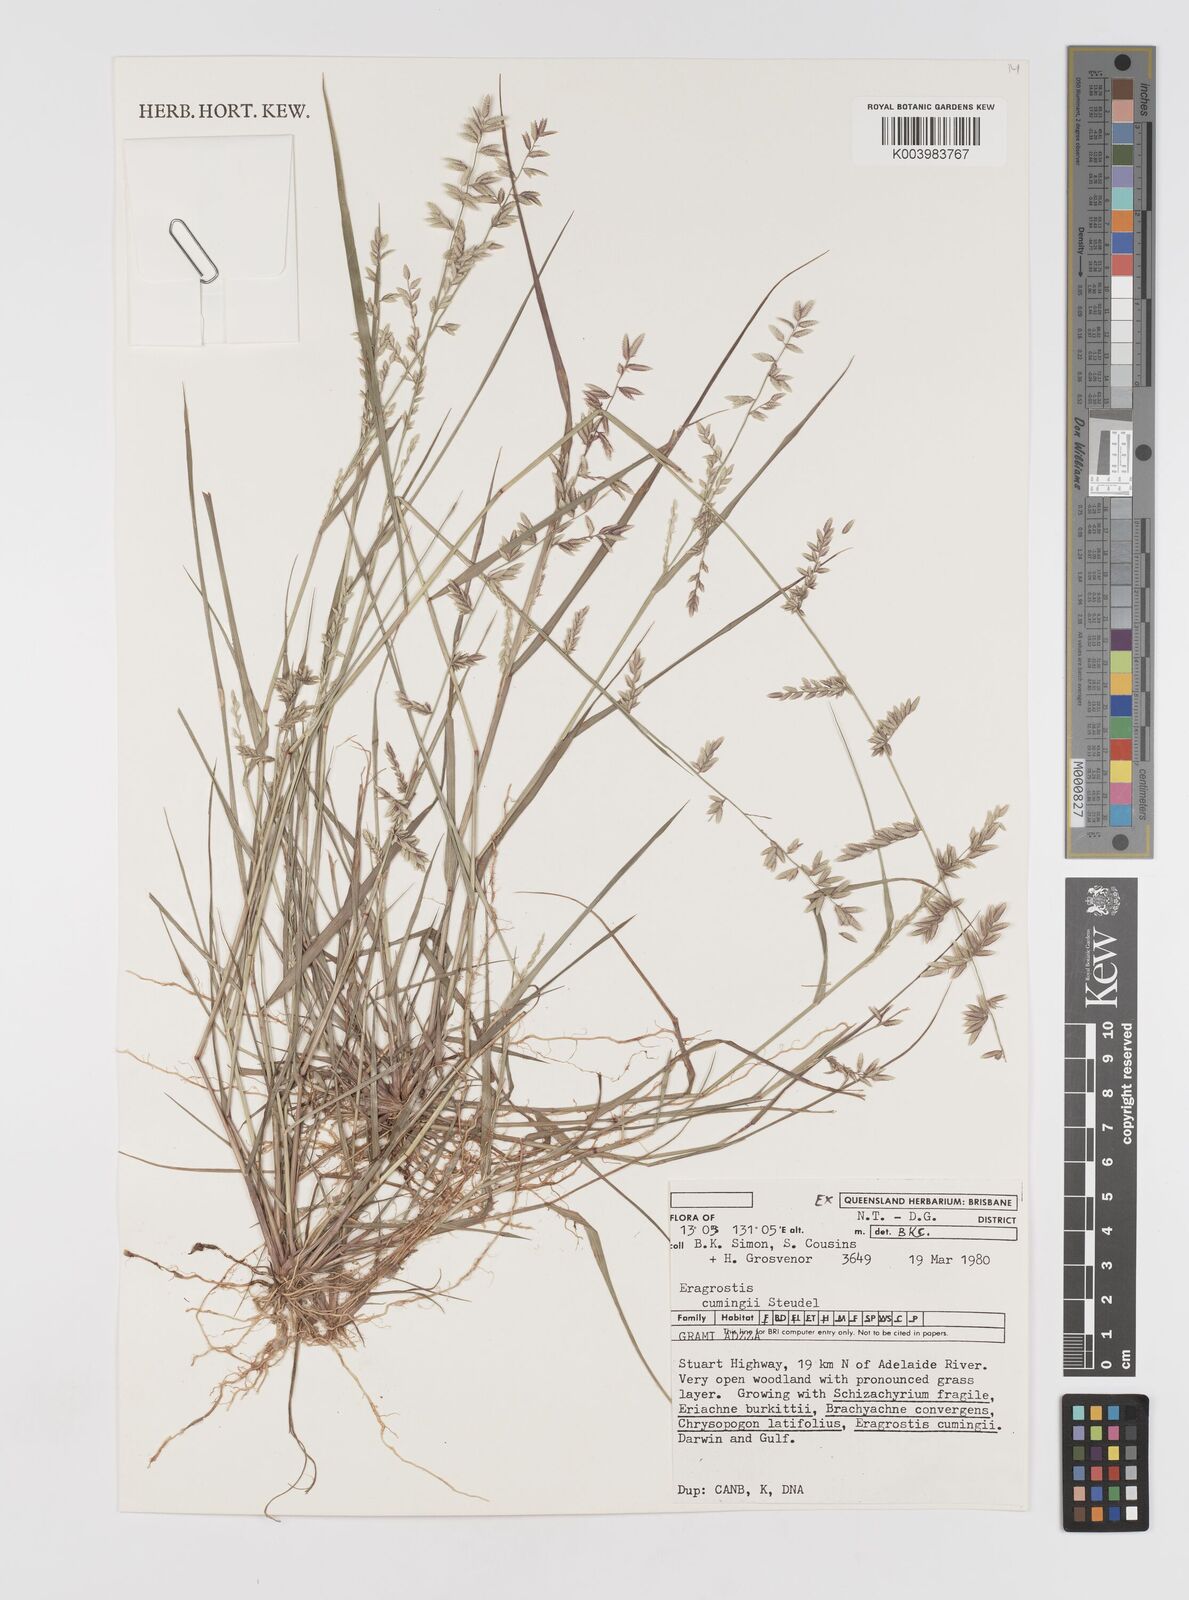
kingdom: Plantae
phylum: Tracheophyta
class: Liliopsida
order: Poales
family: Poaceae
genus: Eragrostis
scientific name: Eragrostis cumingii
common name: Cuming's lovegrass
